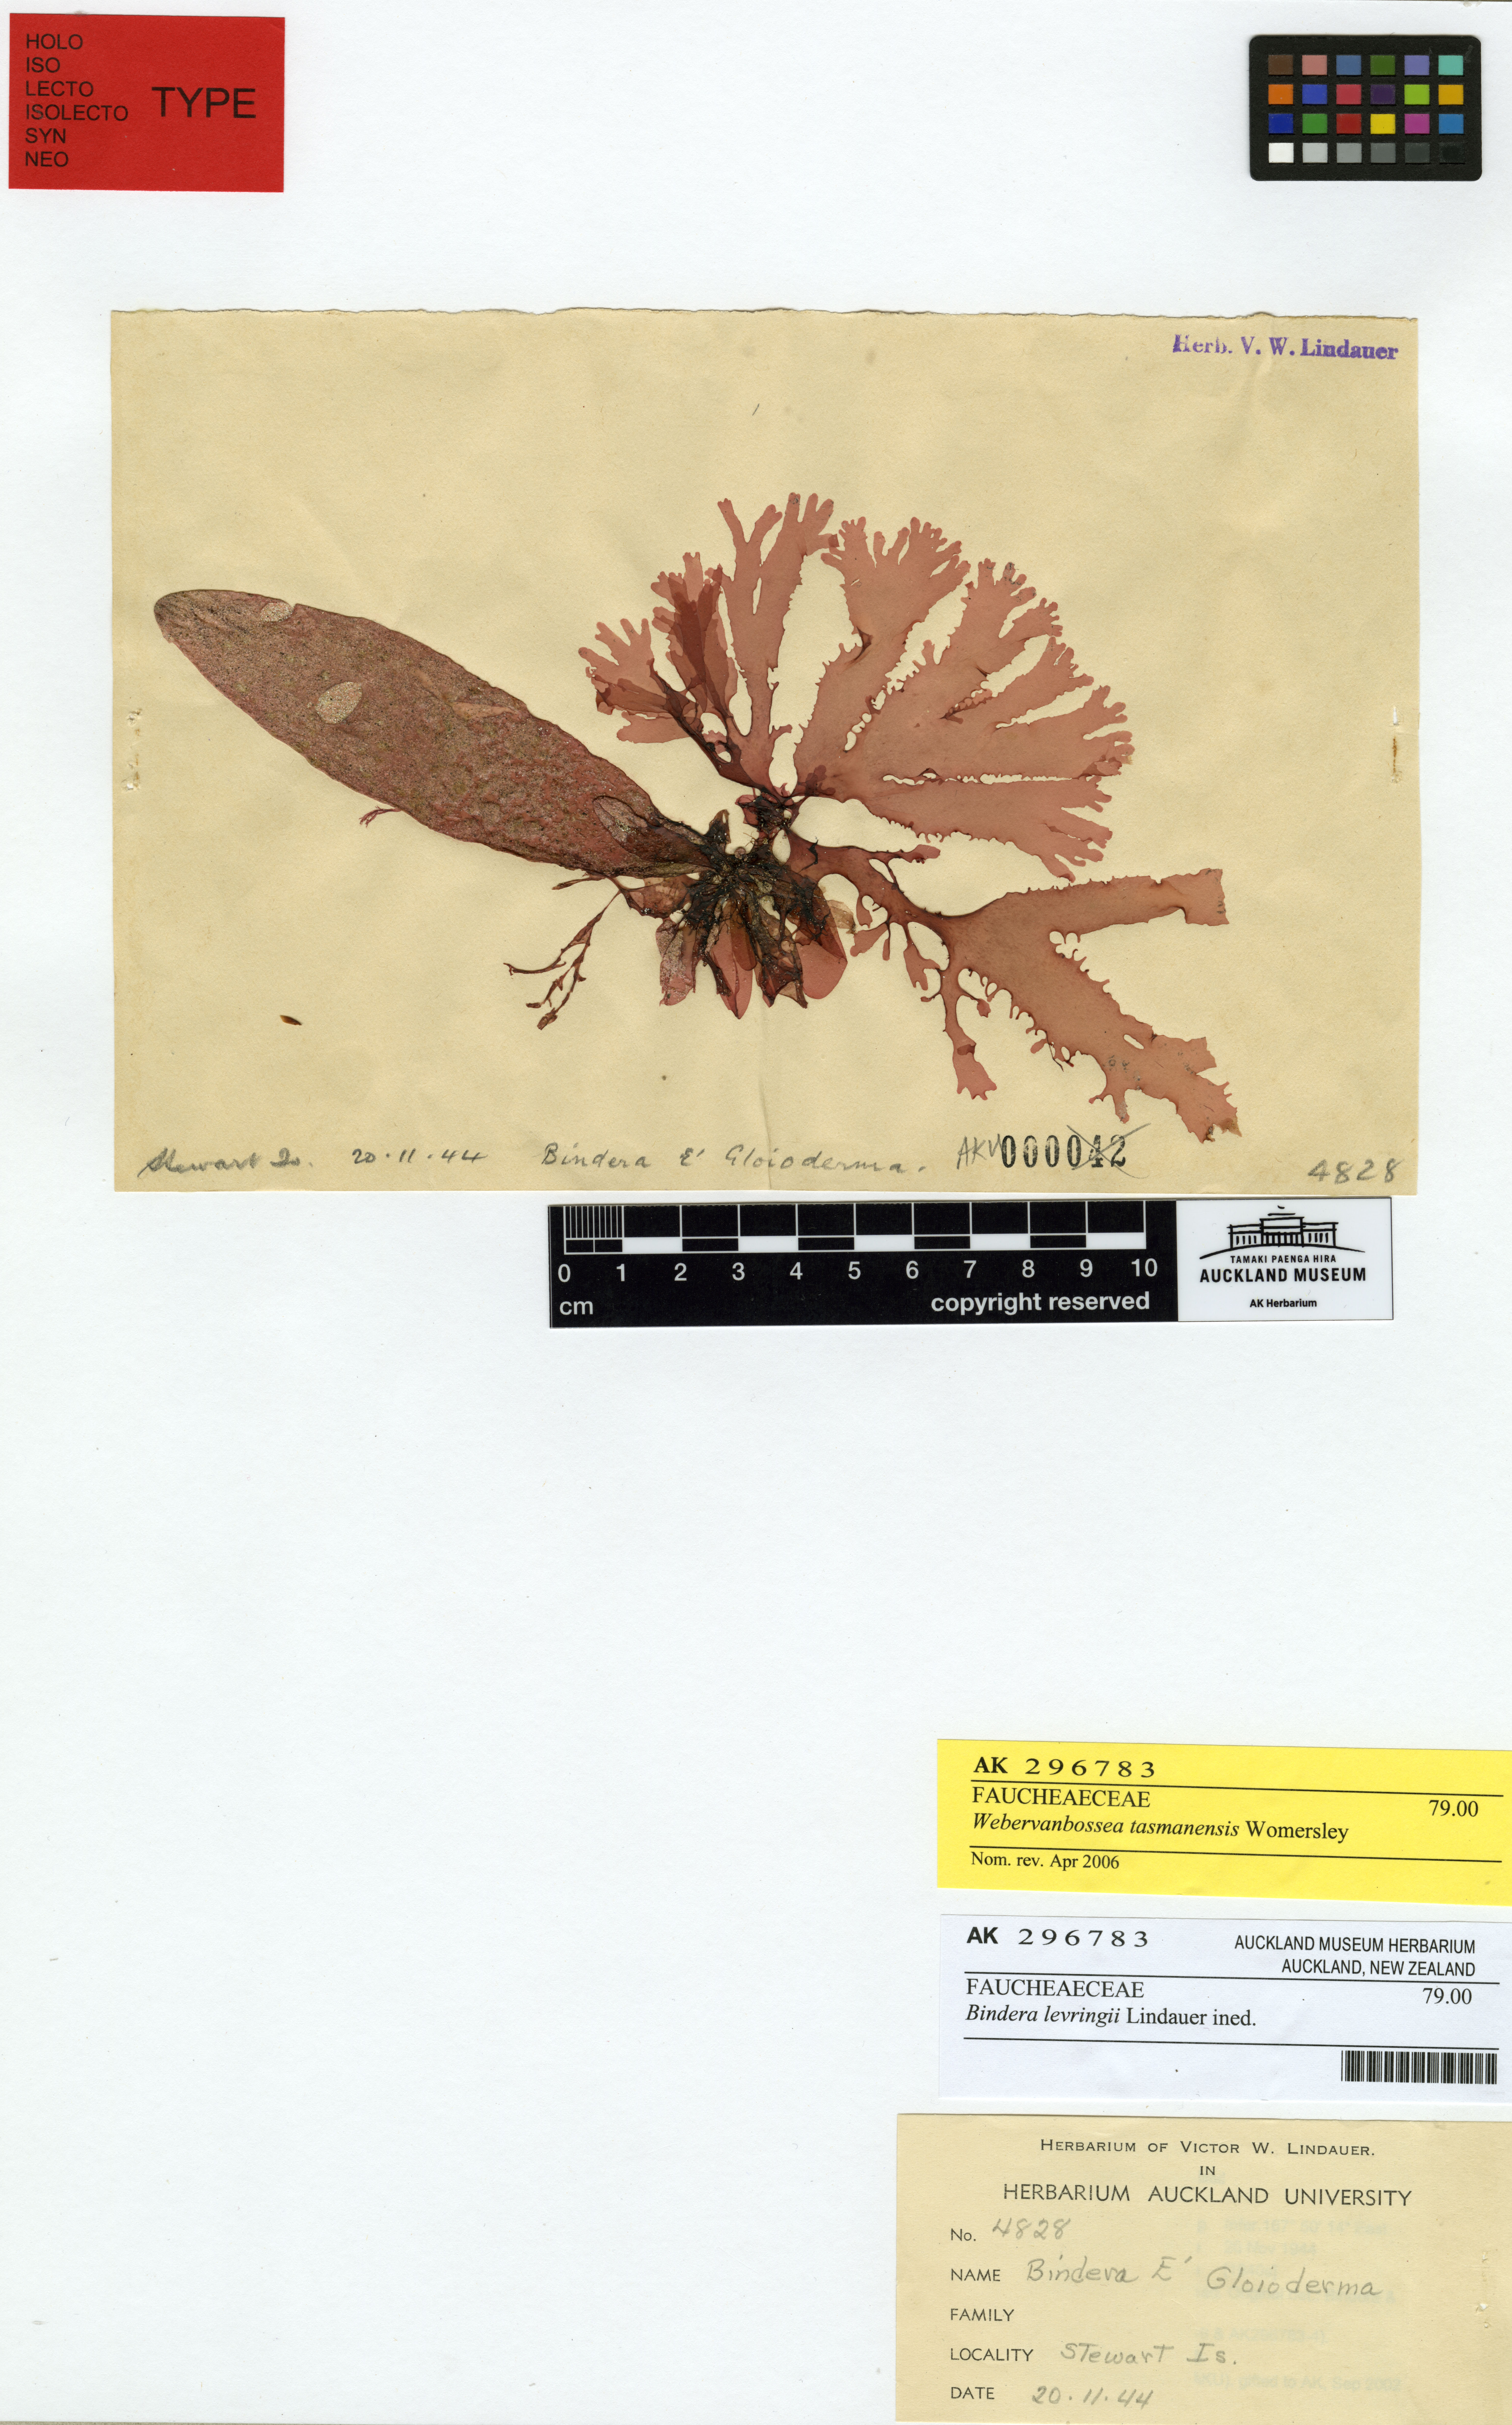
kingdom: Plantae
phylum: Rhodophyta
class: Florideophyceae
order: Rhodymeniales
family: Faucheaceae
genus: Webervanbossea
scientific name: Webervanbossea tasmanensis
